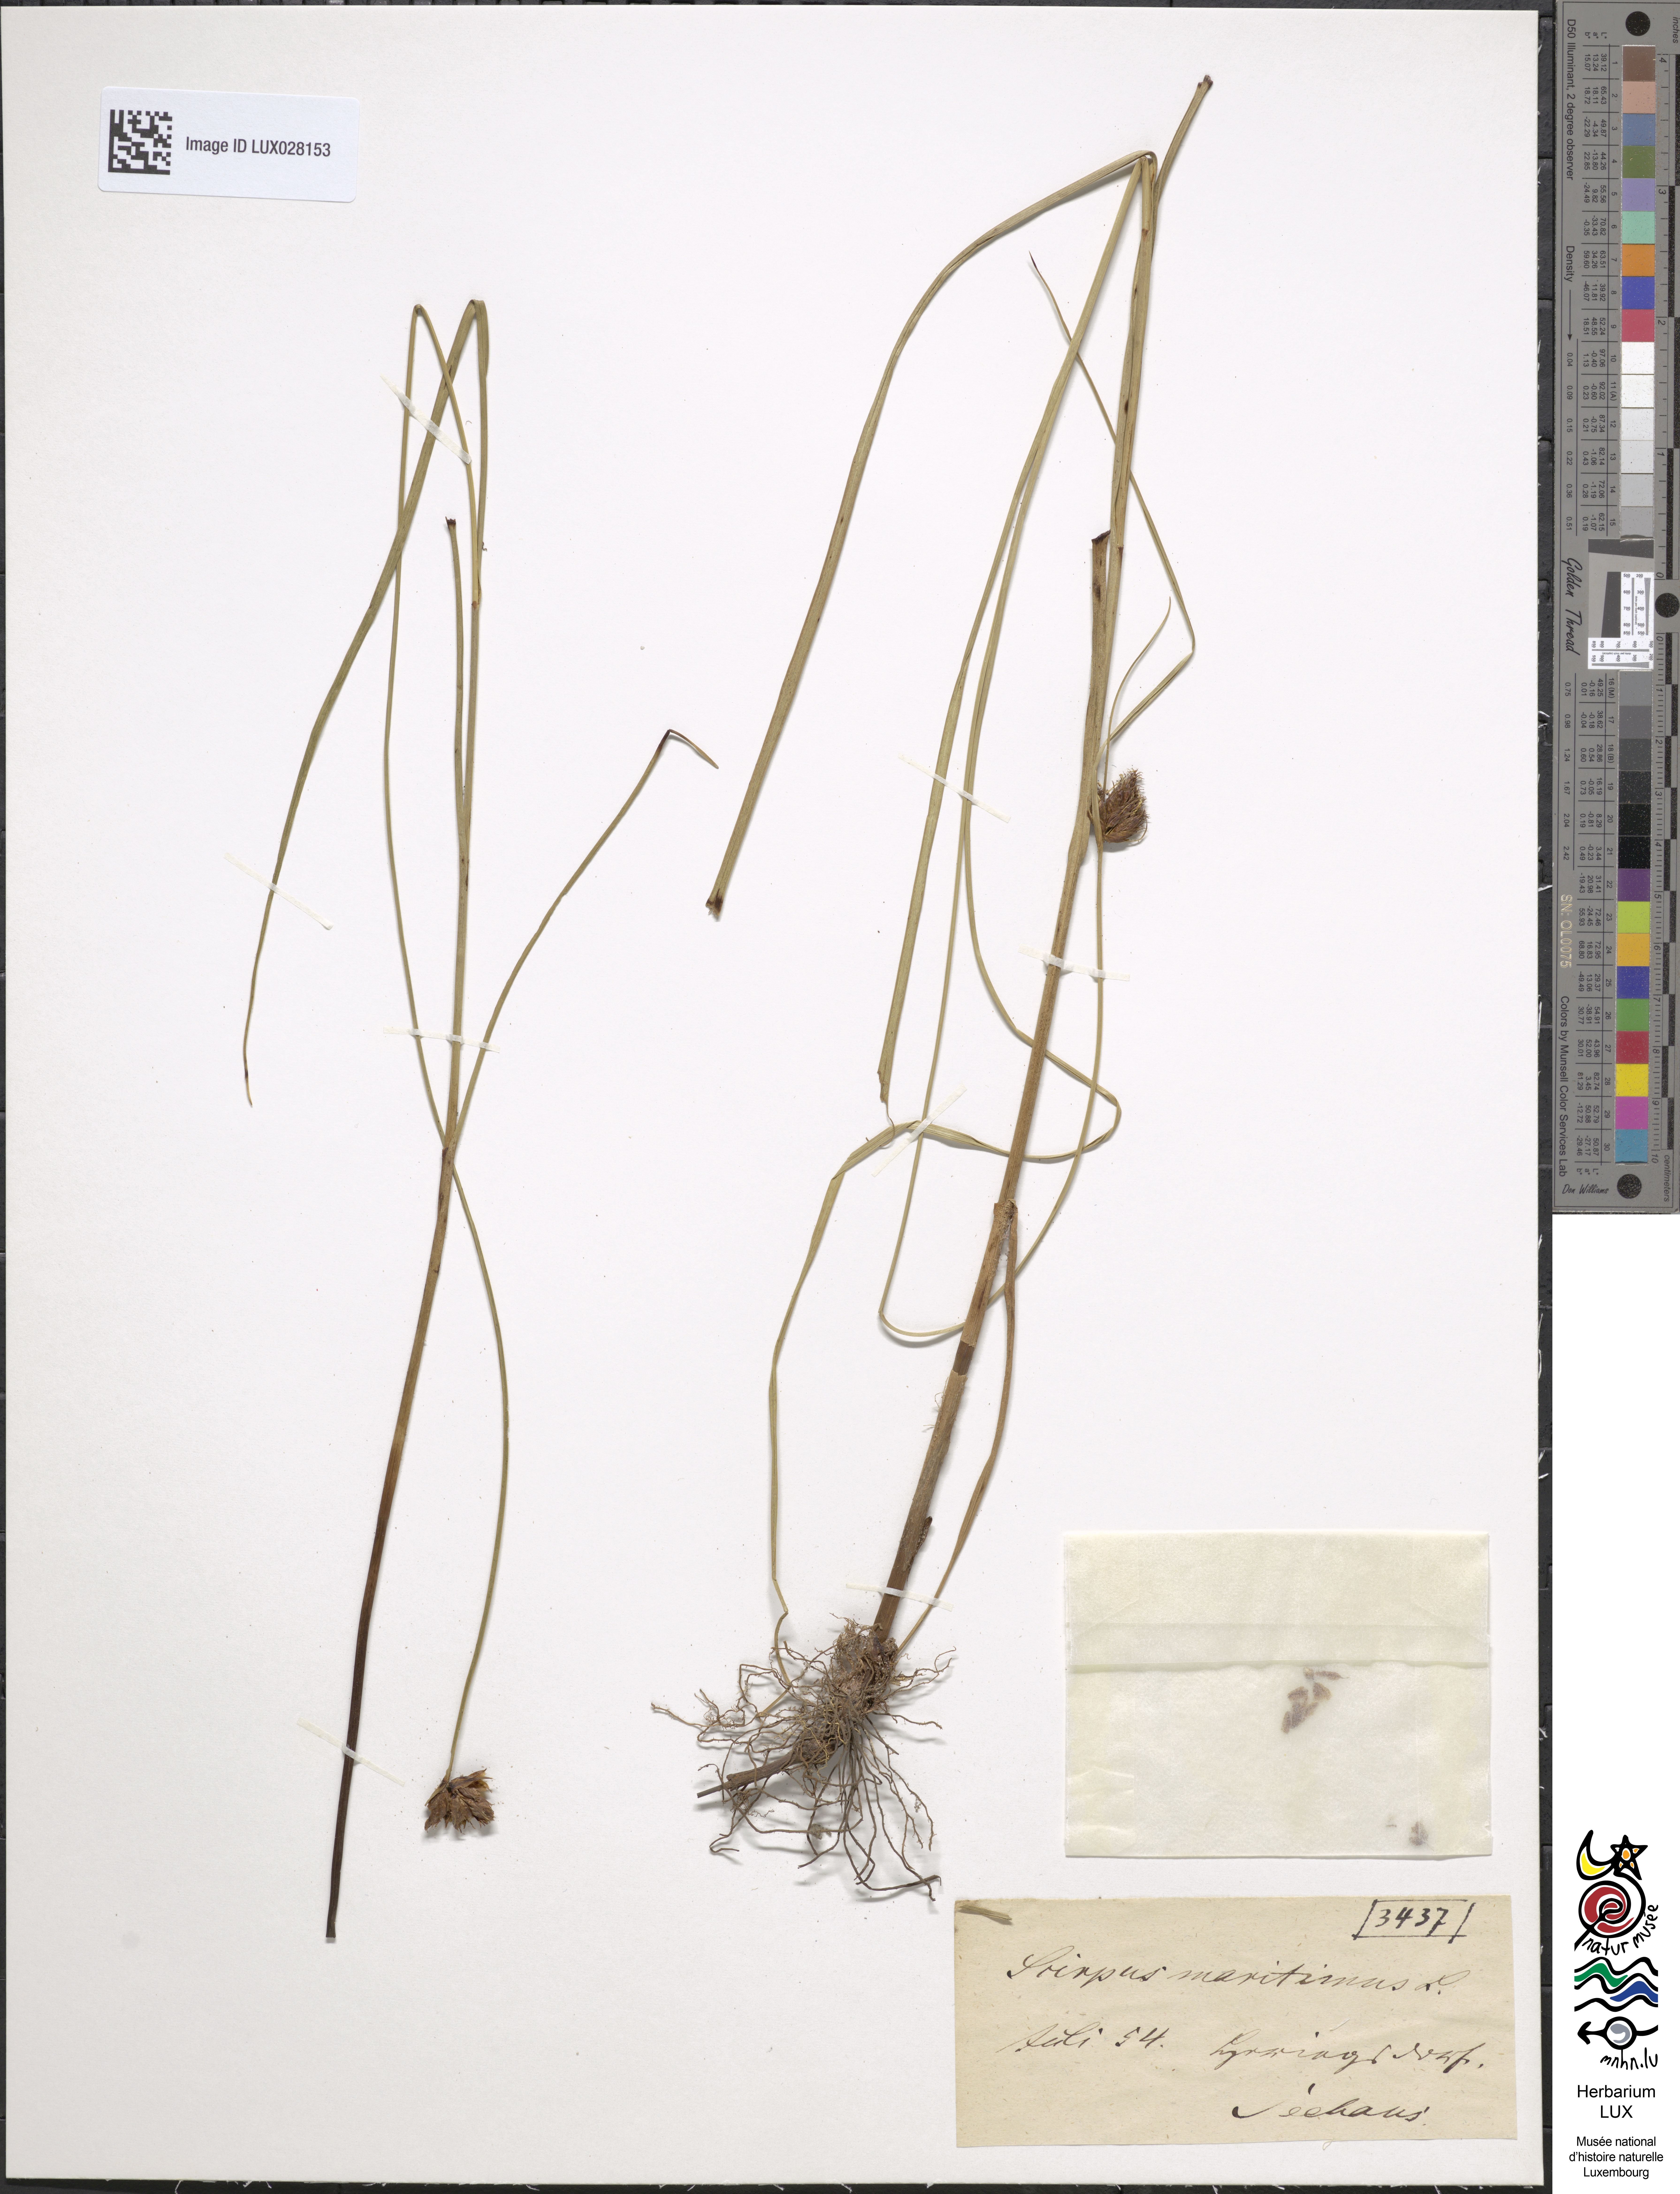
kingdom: Plantae
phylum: Tracheophyta
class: Liliopsida
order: Poales
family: Cyperaceae
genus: Bolboschoenus
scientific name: Bolboschoenus maritimus
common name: Sea club-rush
